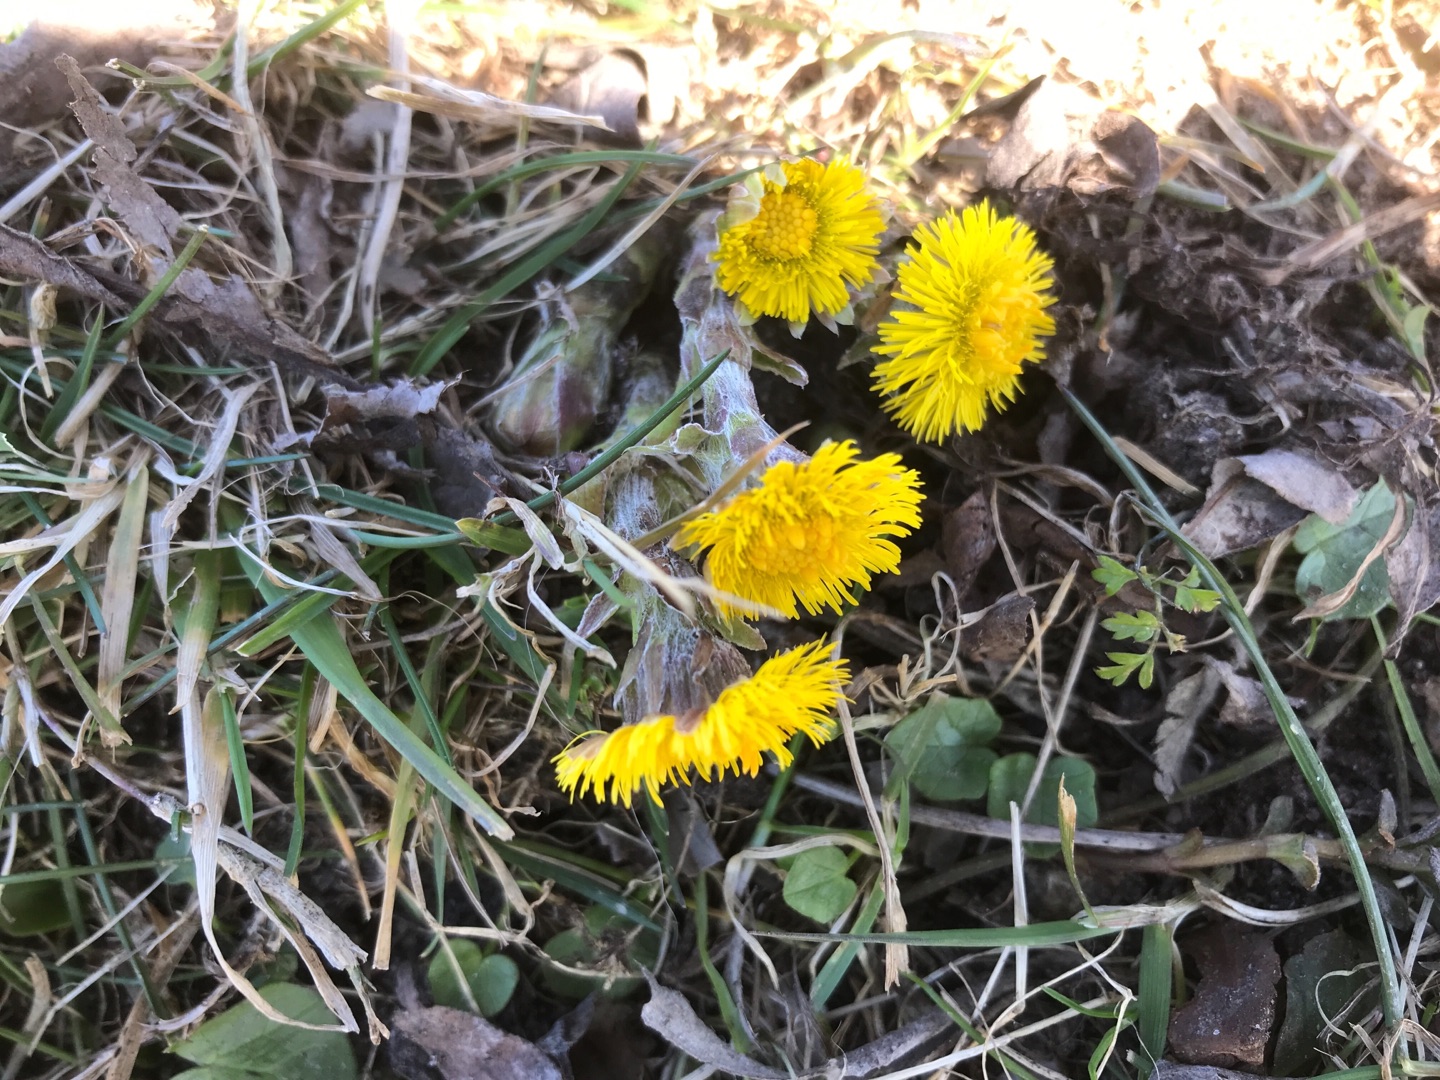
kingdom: Plantae
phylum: Tracheophyta
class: Magnoliopsida
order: Asterales
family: Asteraceae
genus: Tussilago
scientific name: Tussilago farfara
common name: Følfod
